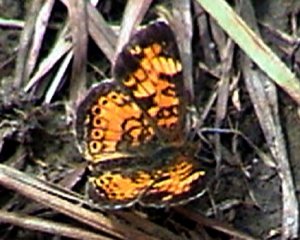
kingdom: Animalia
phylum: Arthropoda
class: Insecta
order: Lepidoptera
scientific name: Lepidoptera
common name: Butterflies
